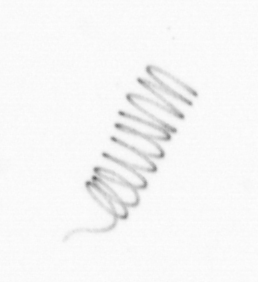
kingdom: Chromista
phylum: Ochrophyta
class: Bacillariophyceae
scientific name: Bacillariophyceae
